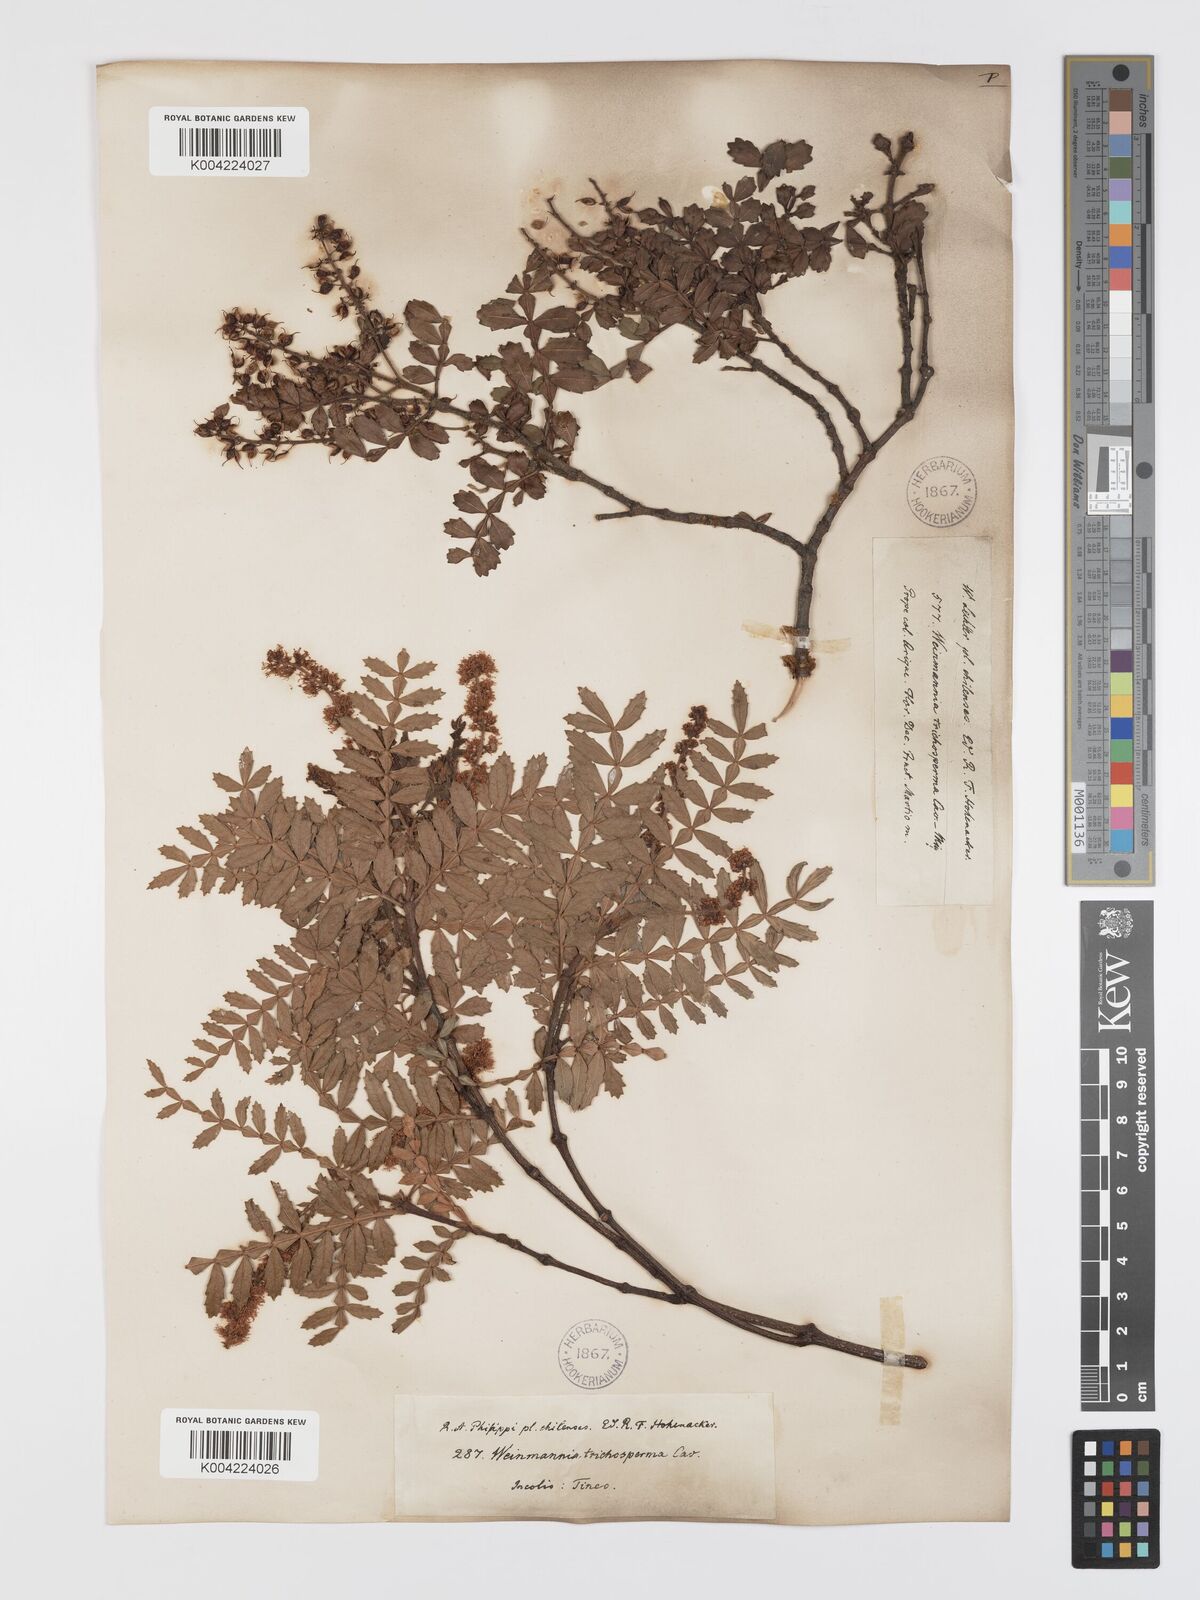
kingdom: Plantae
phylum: Tracheophyta
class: Magnoliopsida
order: Oxalidales
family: Cunoniaceae
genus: Weinmannia
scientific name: Weinmannia trichosperma
